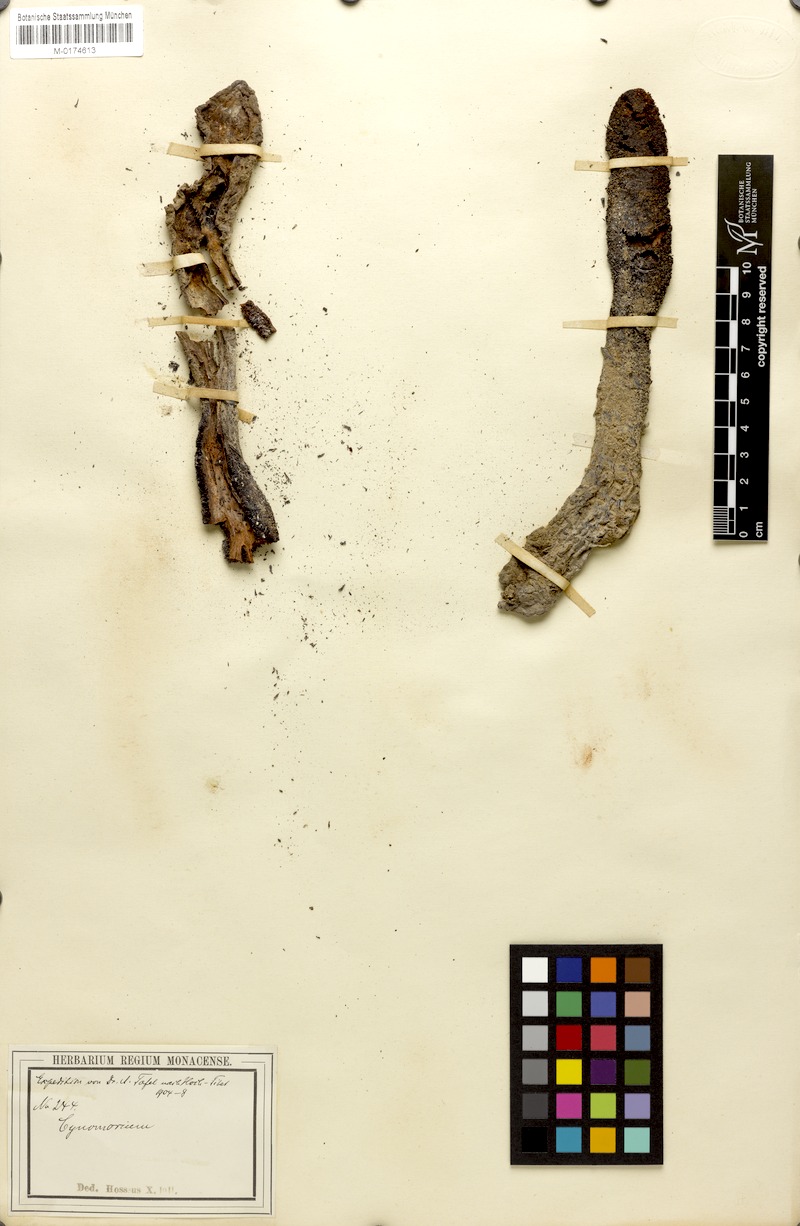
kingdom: Plantae
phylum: Tracheophyta
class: Magnoliopsida
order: Saxifragales
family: Cynomoriaceae
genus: Cynomorium
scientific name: Cynomorium
